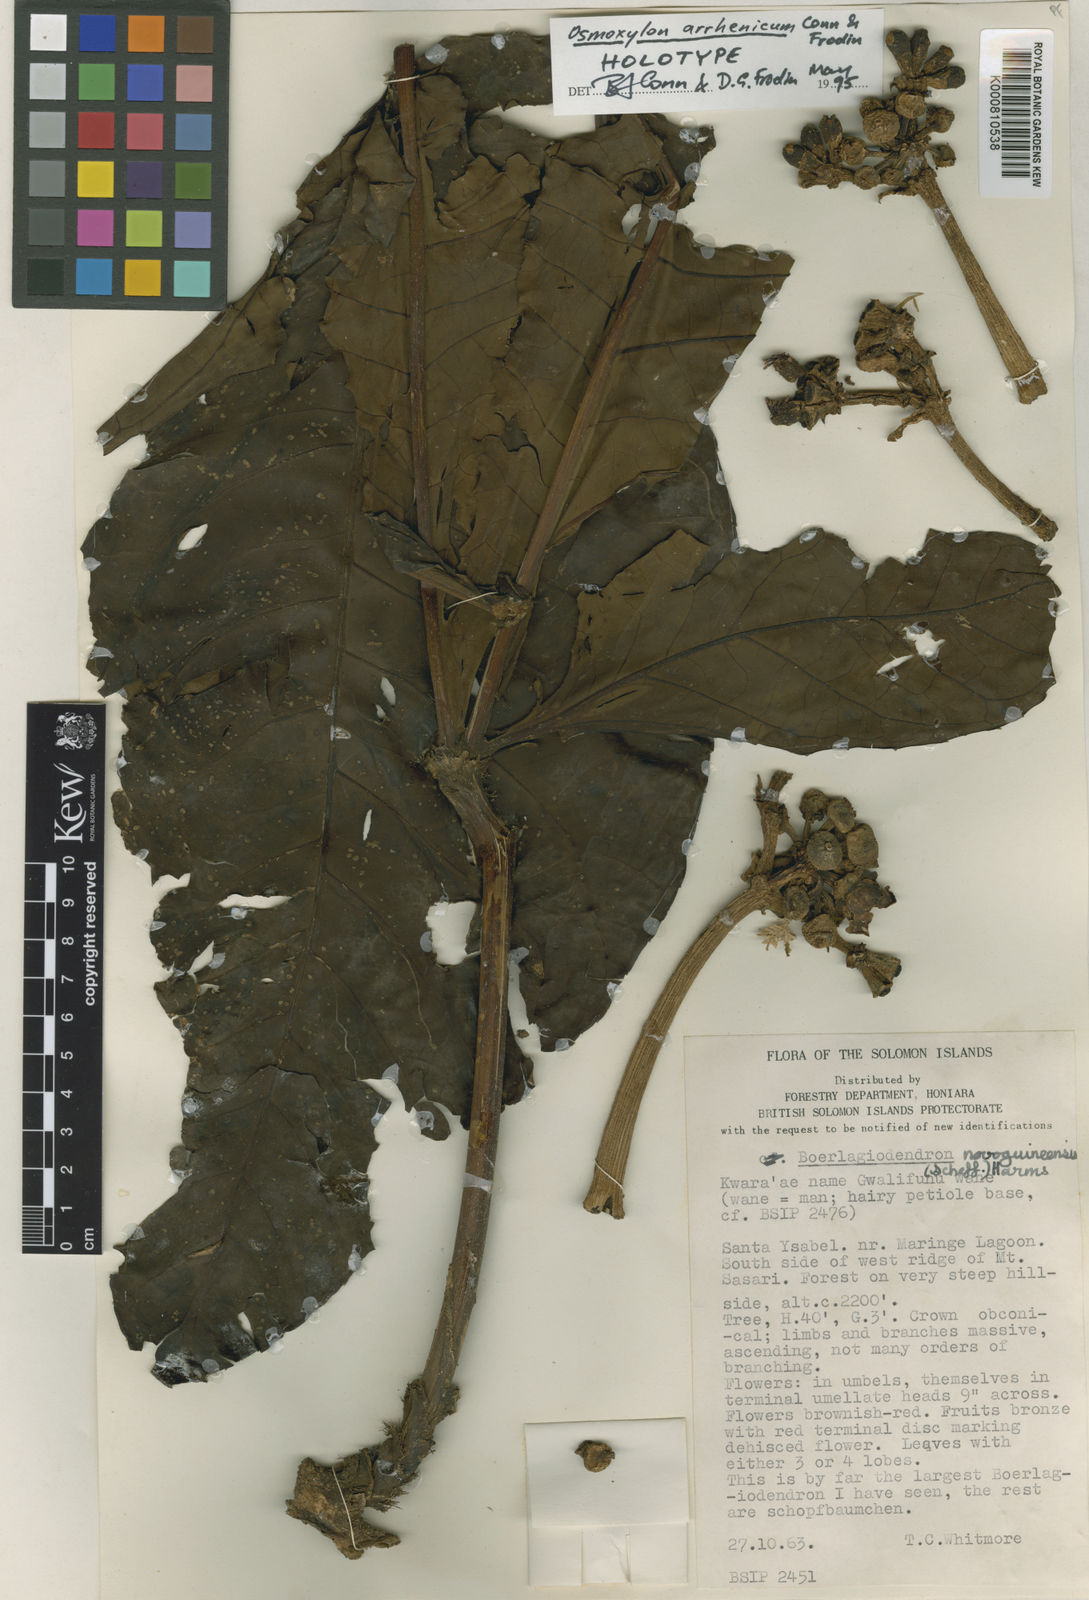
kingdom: Plantae
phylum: Tracheophyta
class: Magnoliopsida
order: Apiales
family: Araliaceae
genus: Osmoxylon
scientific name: Osmoxylon arrhenicum
